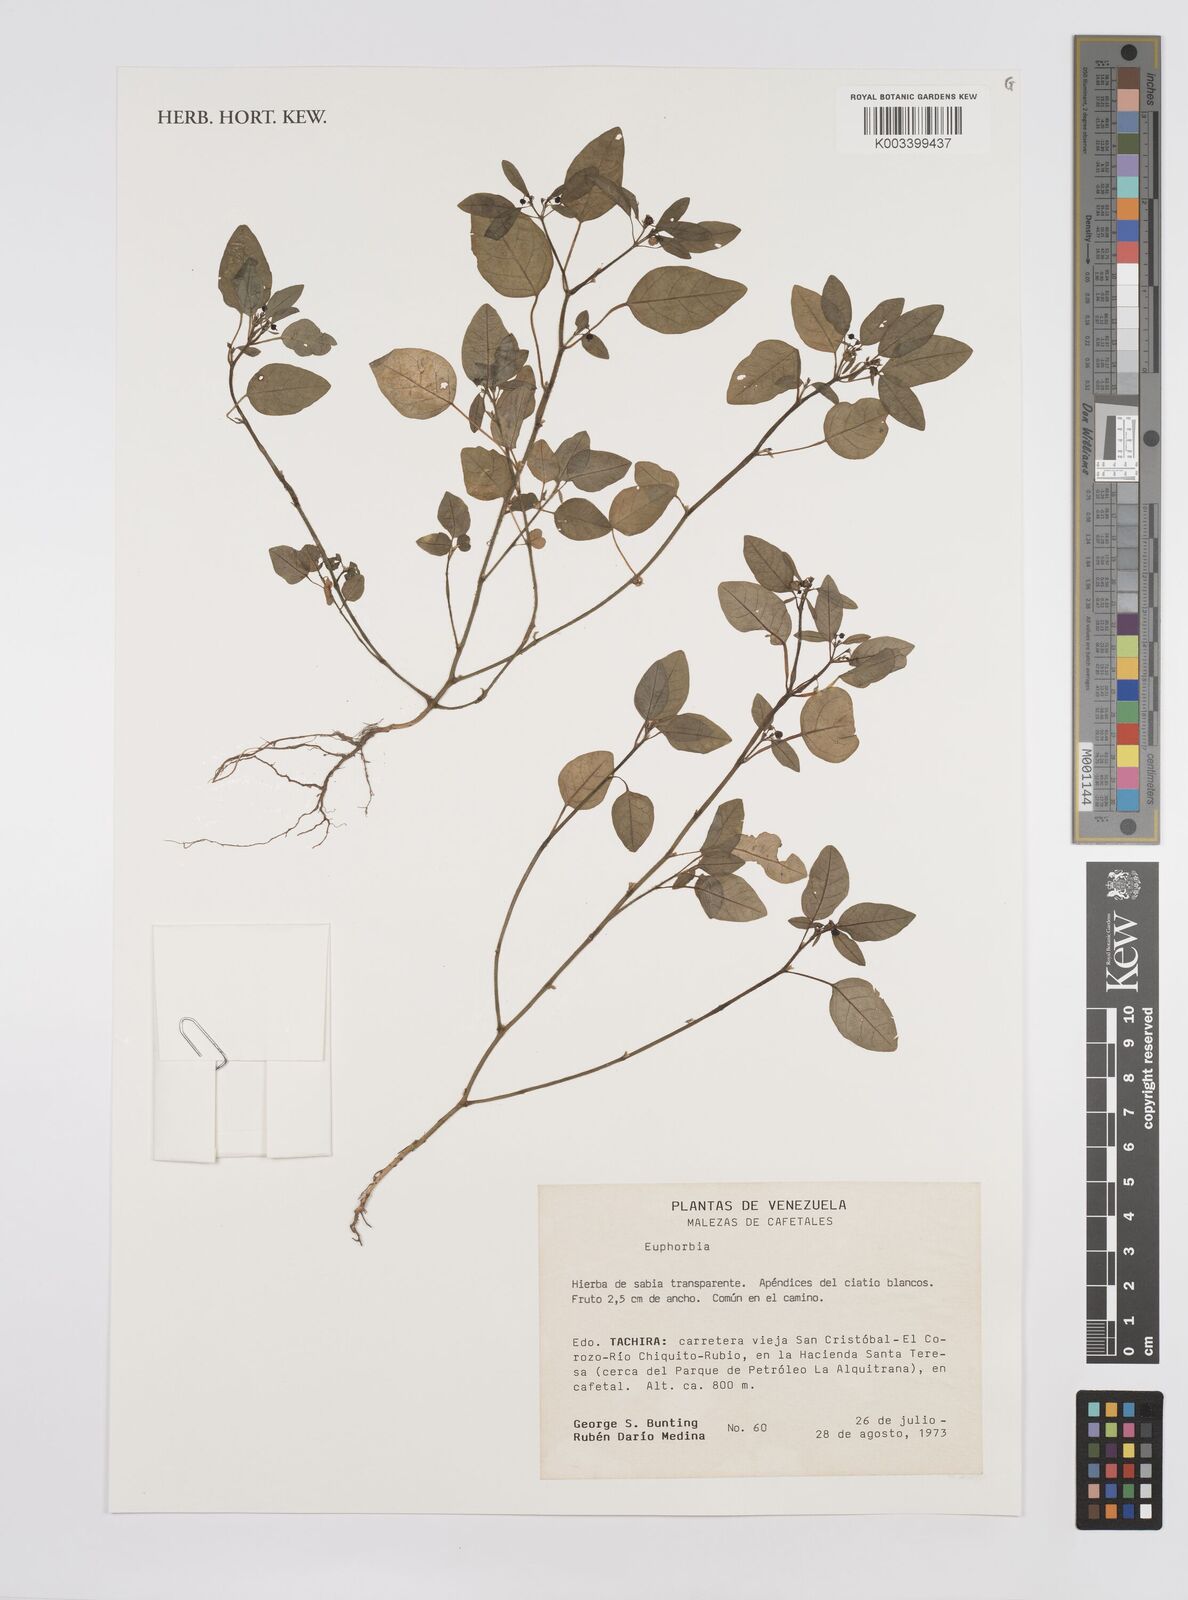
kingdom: Plantae
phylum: Tracheophyta
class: Magnoliopsida
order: Malpighiales
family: Euphorbiaceae
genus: Euphorbia
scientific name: Euphorbia
